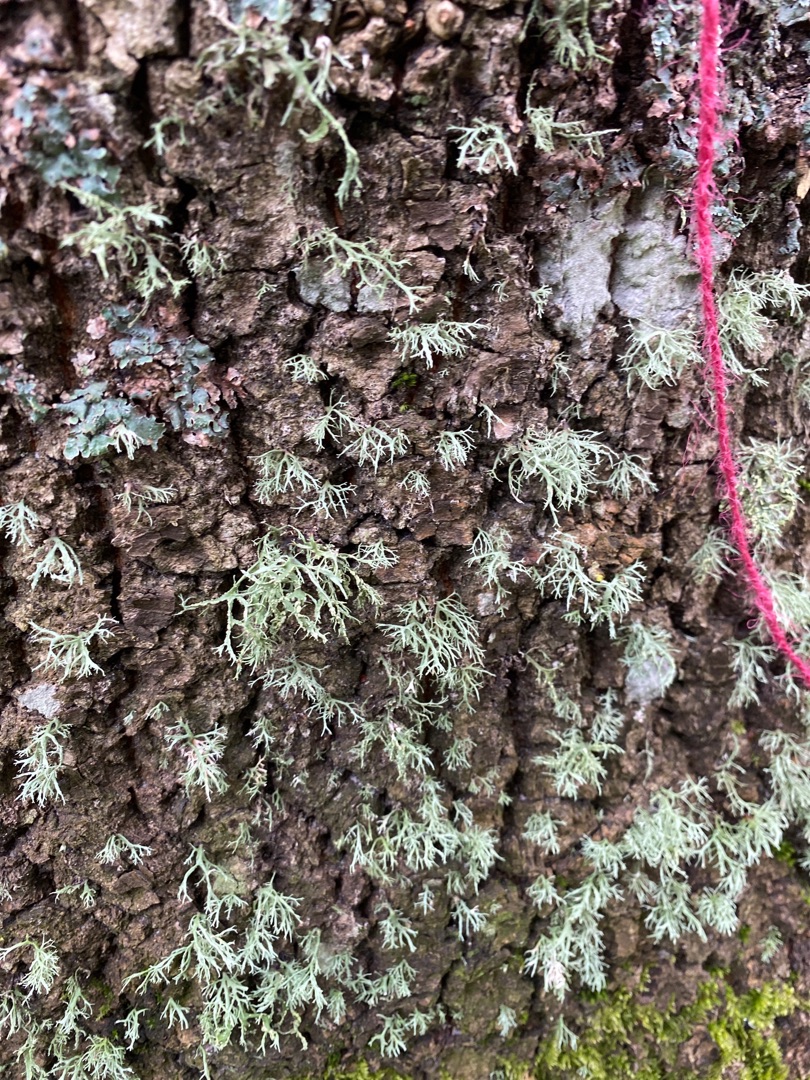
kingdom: Fungi
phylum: Ascomycota
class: Lecanoromycetes
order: Lecanorales
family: Ramalinaceae
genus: Ramalina
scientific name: Ramalina farinacea
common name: Melet grenlav
